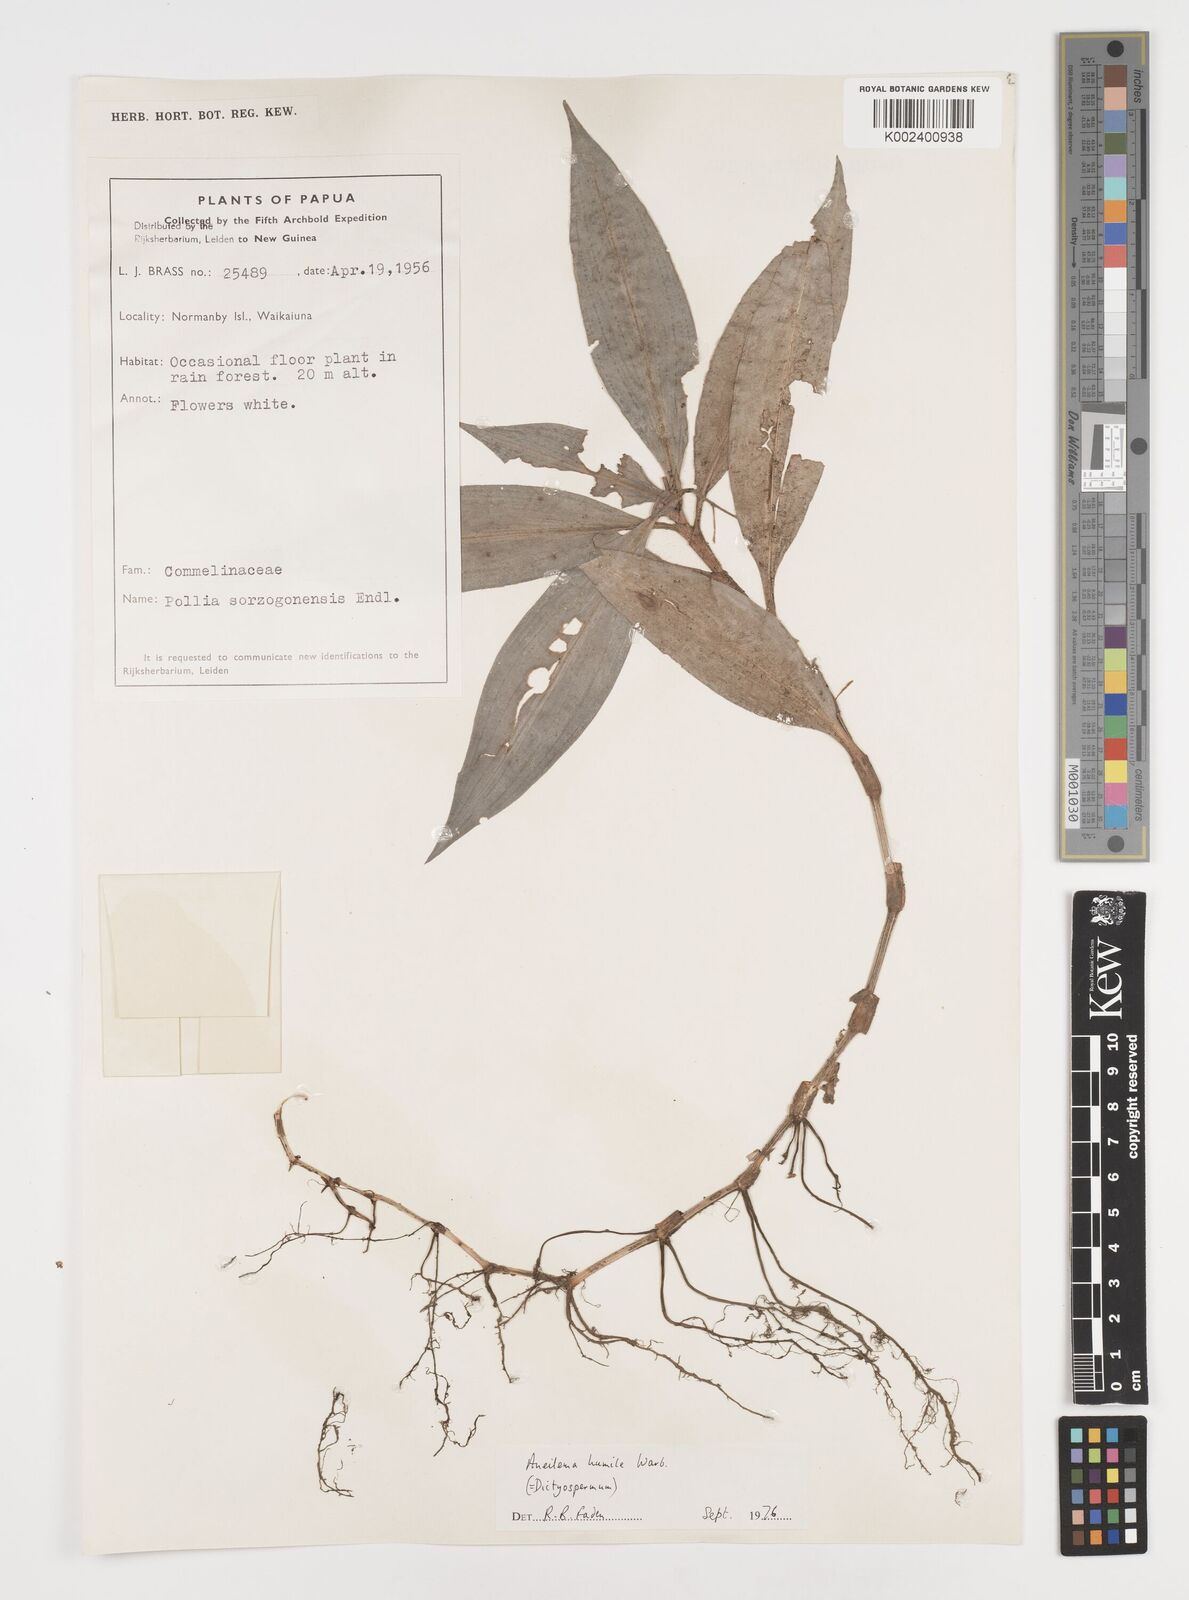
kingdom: Plantae
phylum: Tracheophyta
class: Liliopsida
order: Commelinales
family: Commelinaceae
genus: Dictyospermum
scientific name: Dictyospermum humile
